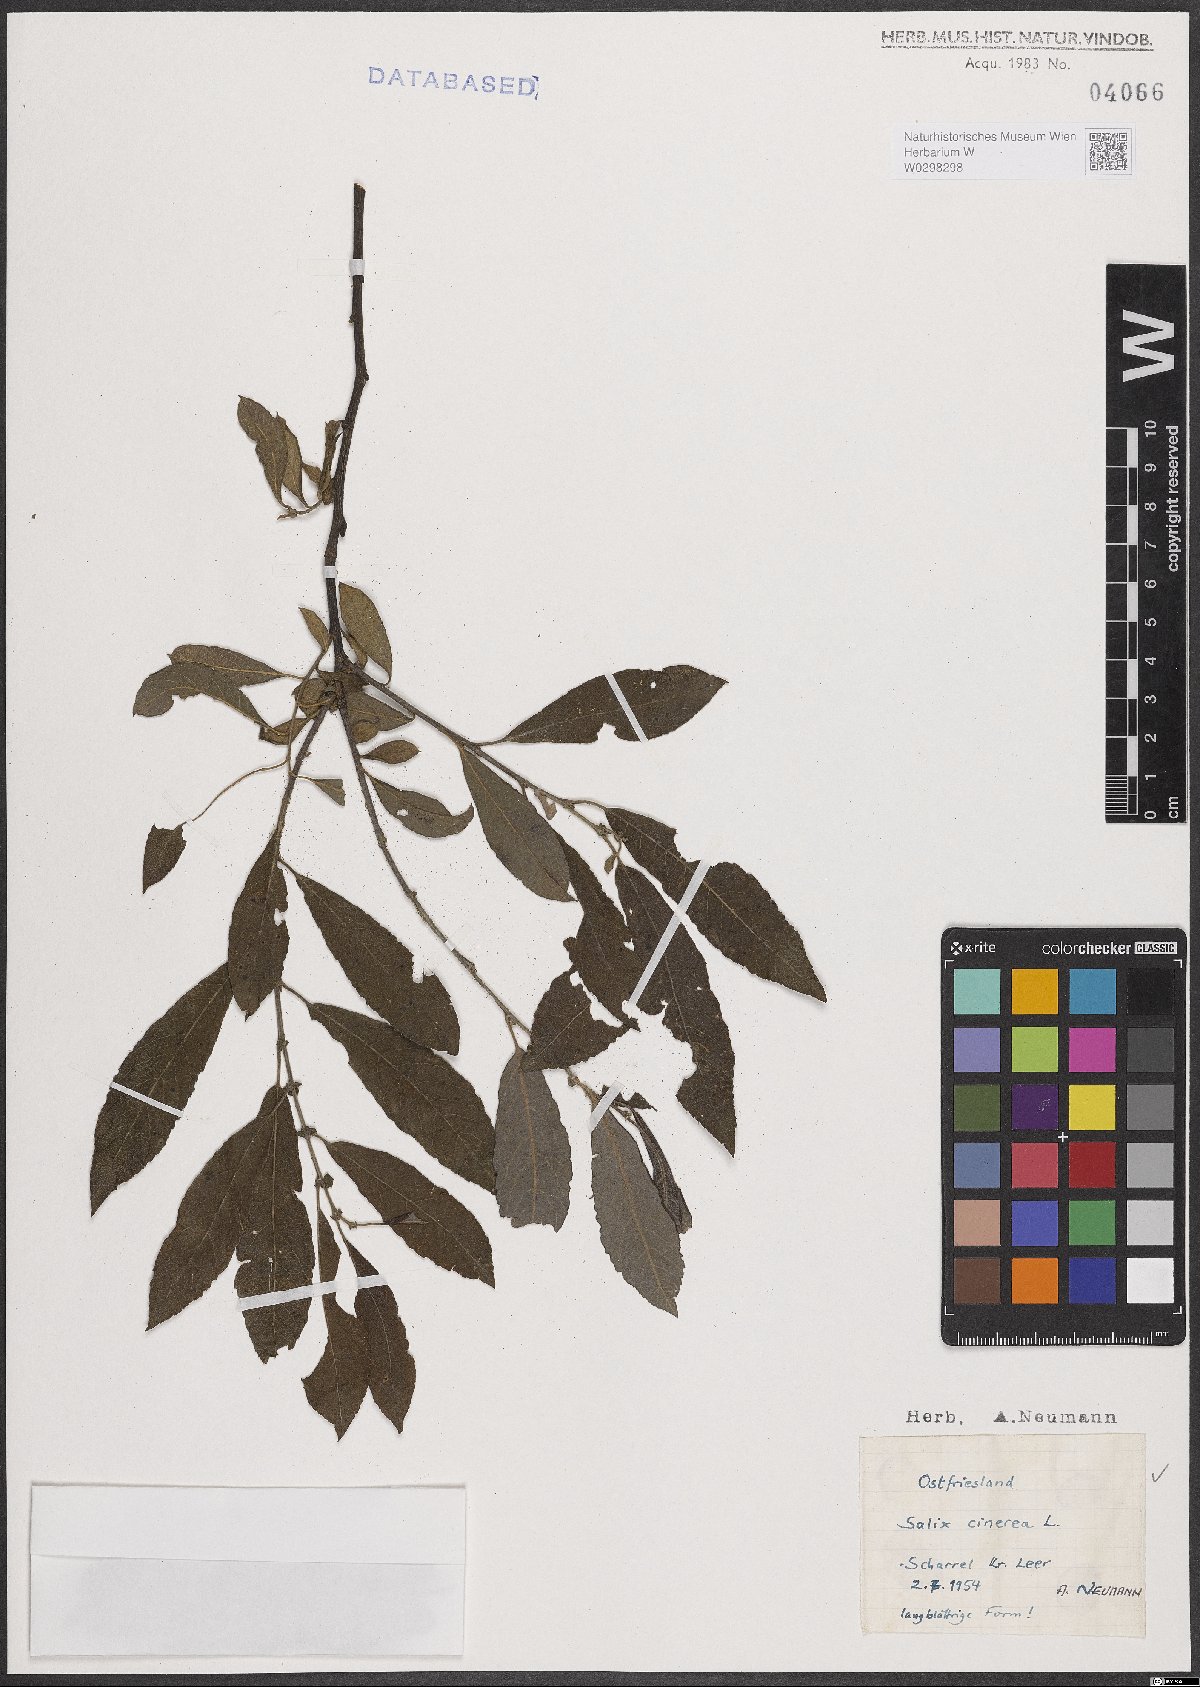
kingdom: Plantae
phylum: Tracheophyta
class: Magnoliopsida
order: Malpighiales
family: Salicaceae
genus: Salix
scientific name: Salix cinerea
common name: Common sallow
